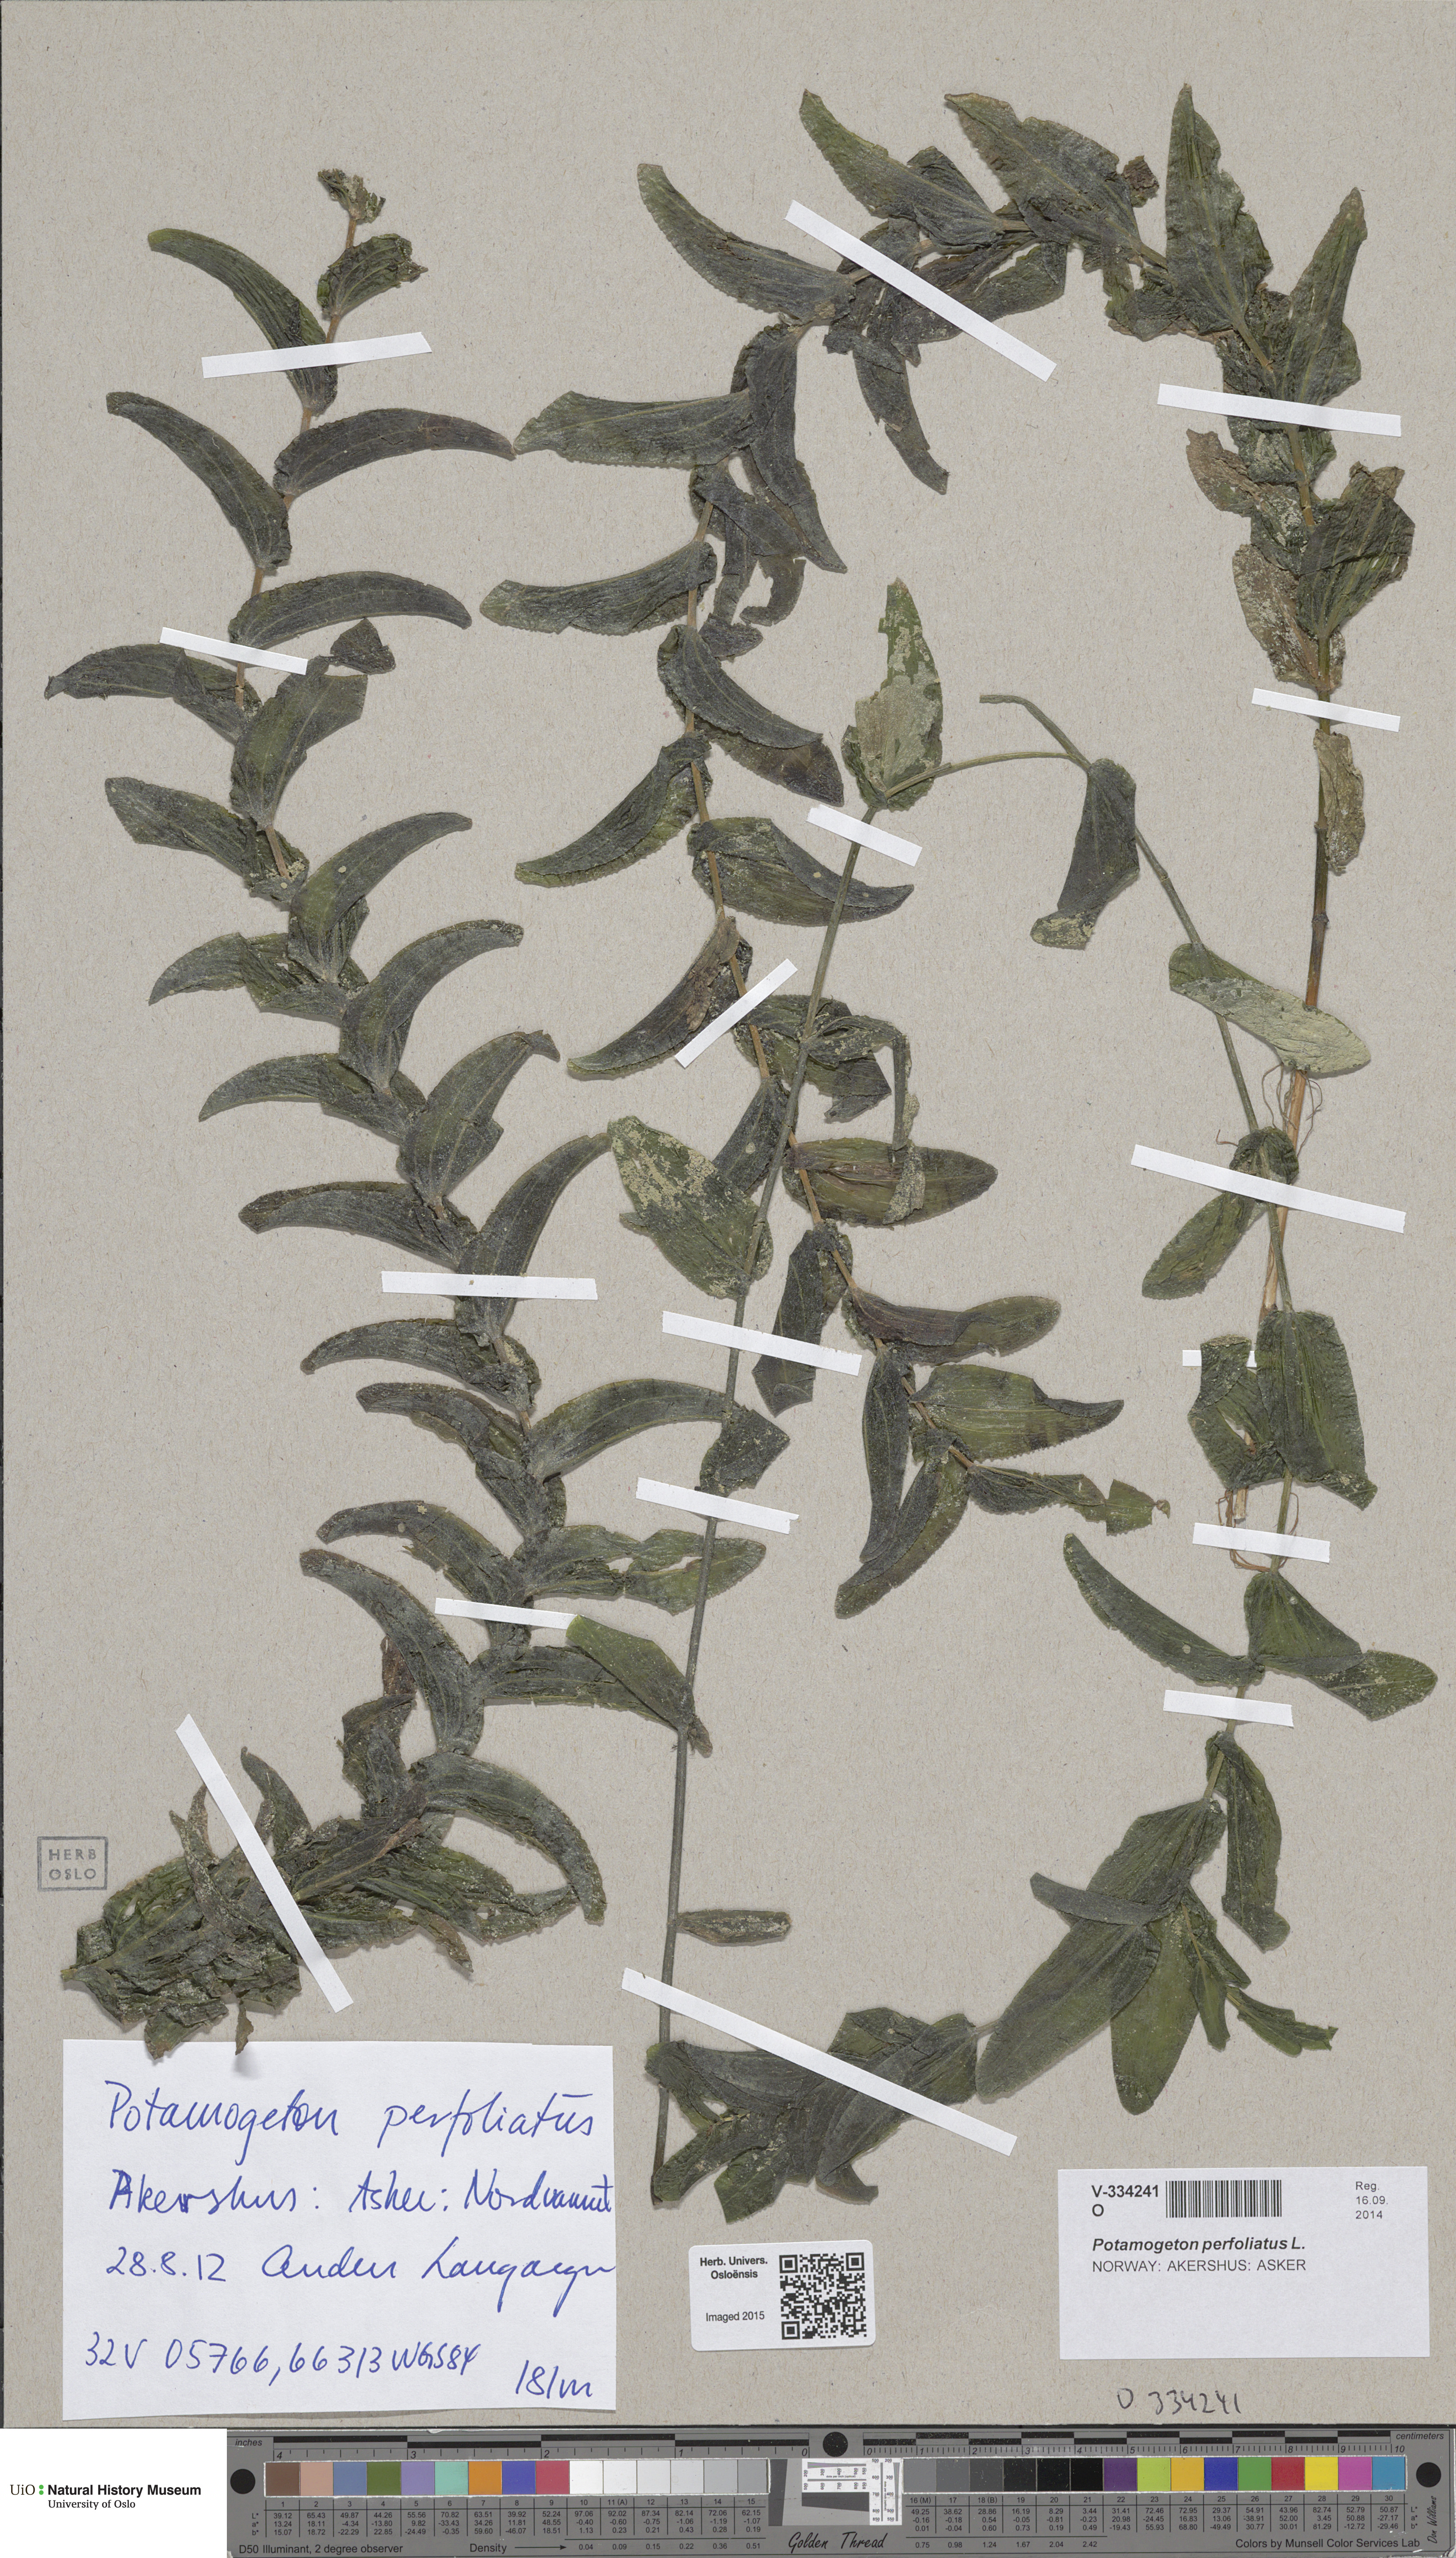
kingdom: Plantae
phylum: Tracheophyta
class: Liliopsida
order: Alismatales
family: Potamogetonaceae
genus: Potamogeton
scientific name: Potamogeton perfoliatus
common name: Perfoliate pondweed
